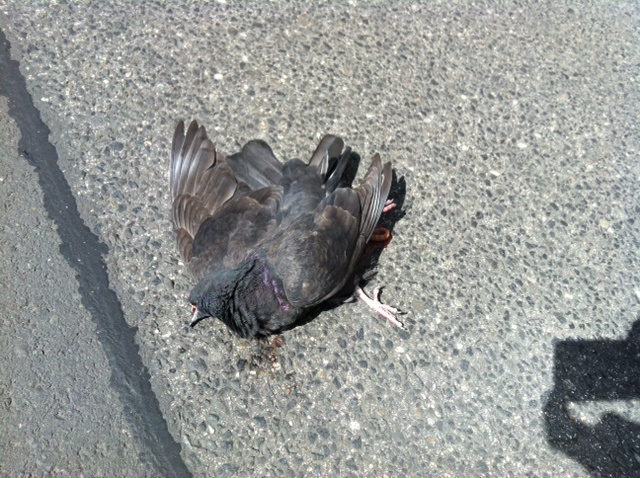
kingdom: Animalia
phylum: Chordata
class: Aves
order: Columbiformes
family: Columbidae
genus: Columba
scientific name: Columba livia
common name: Rock pigeon
